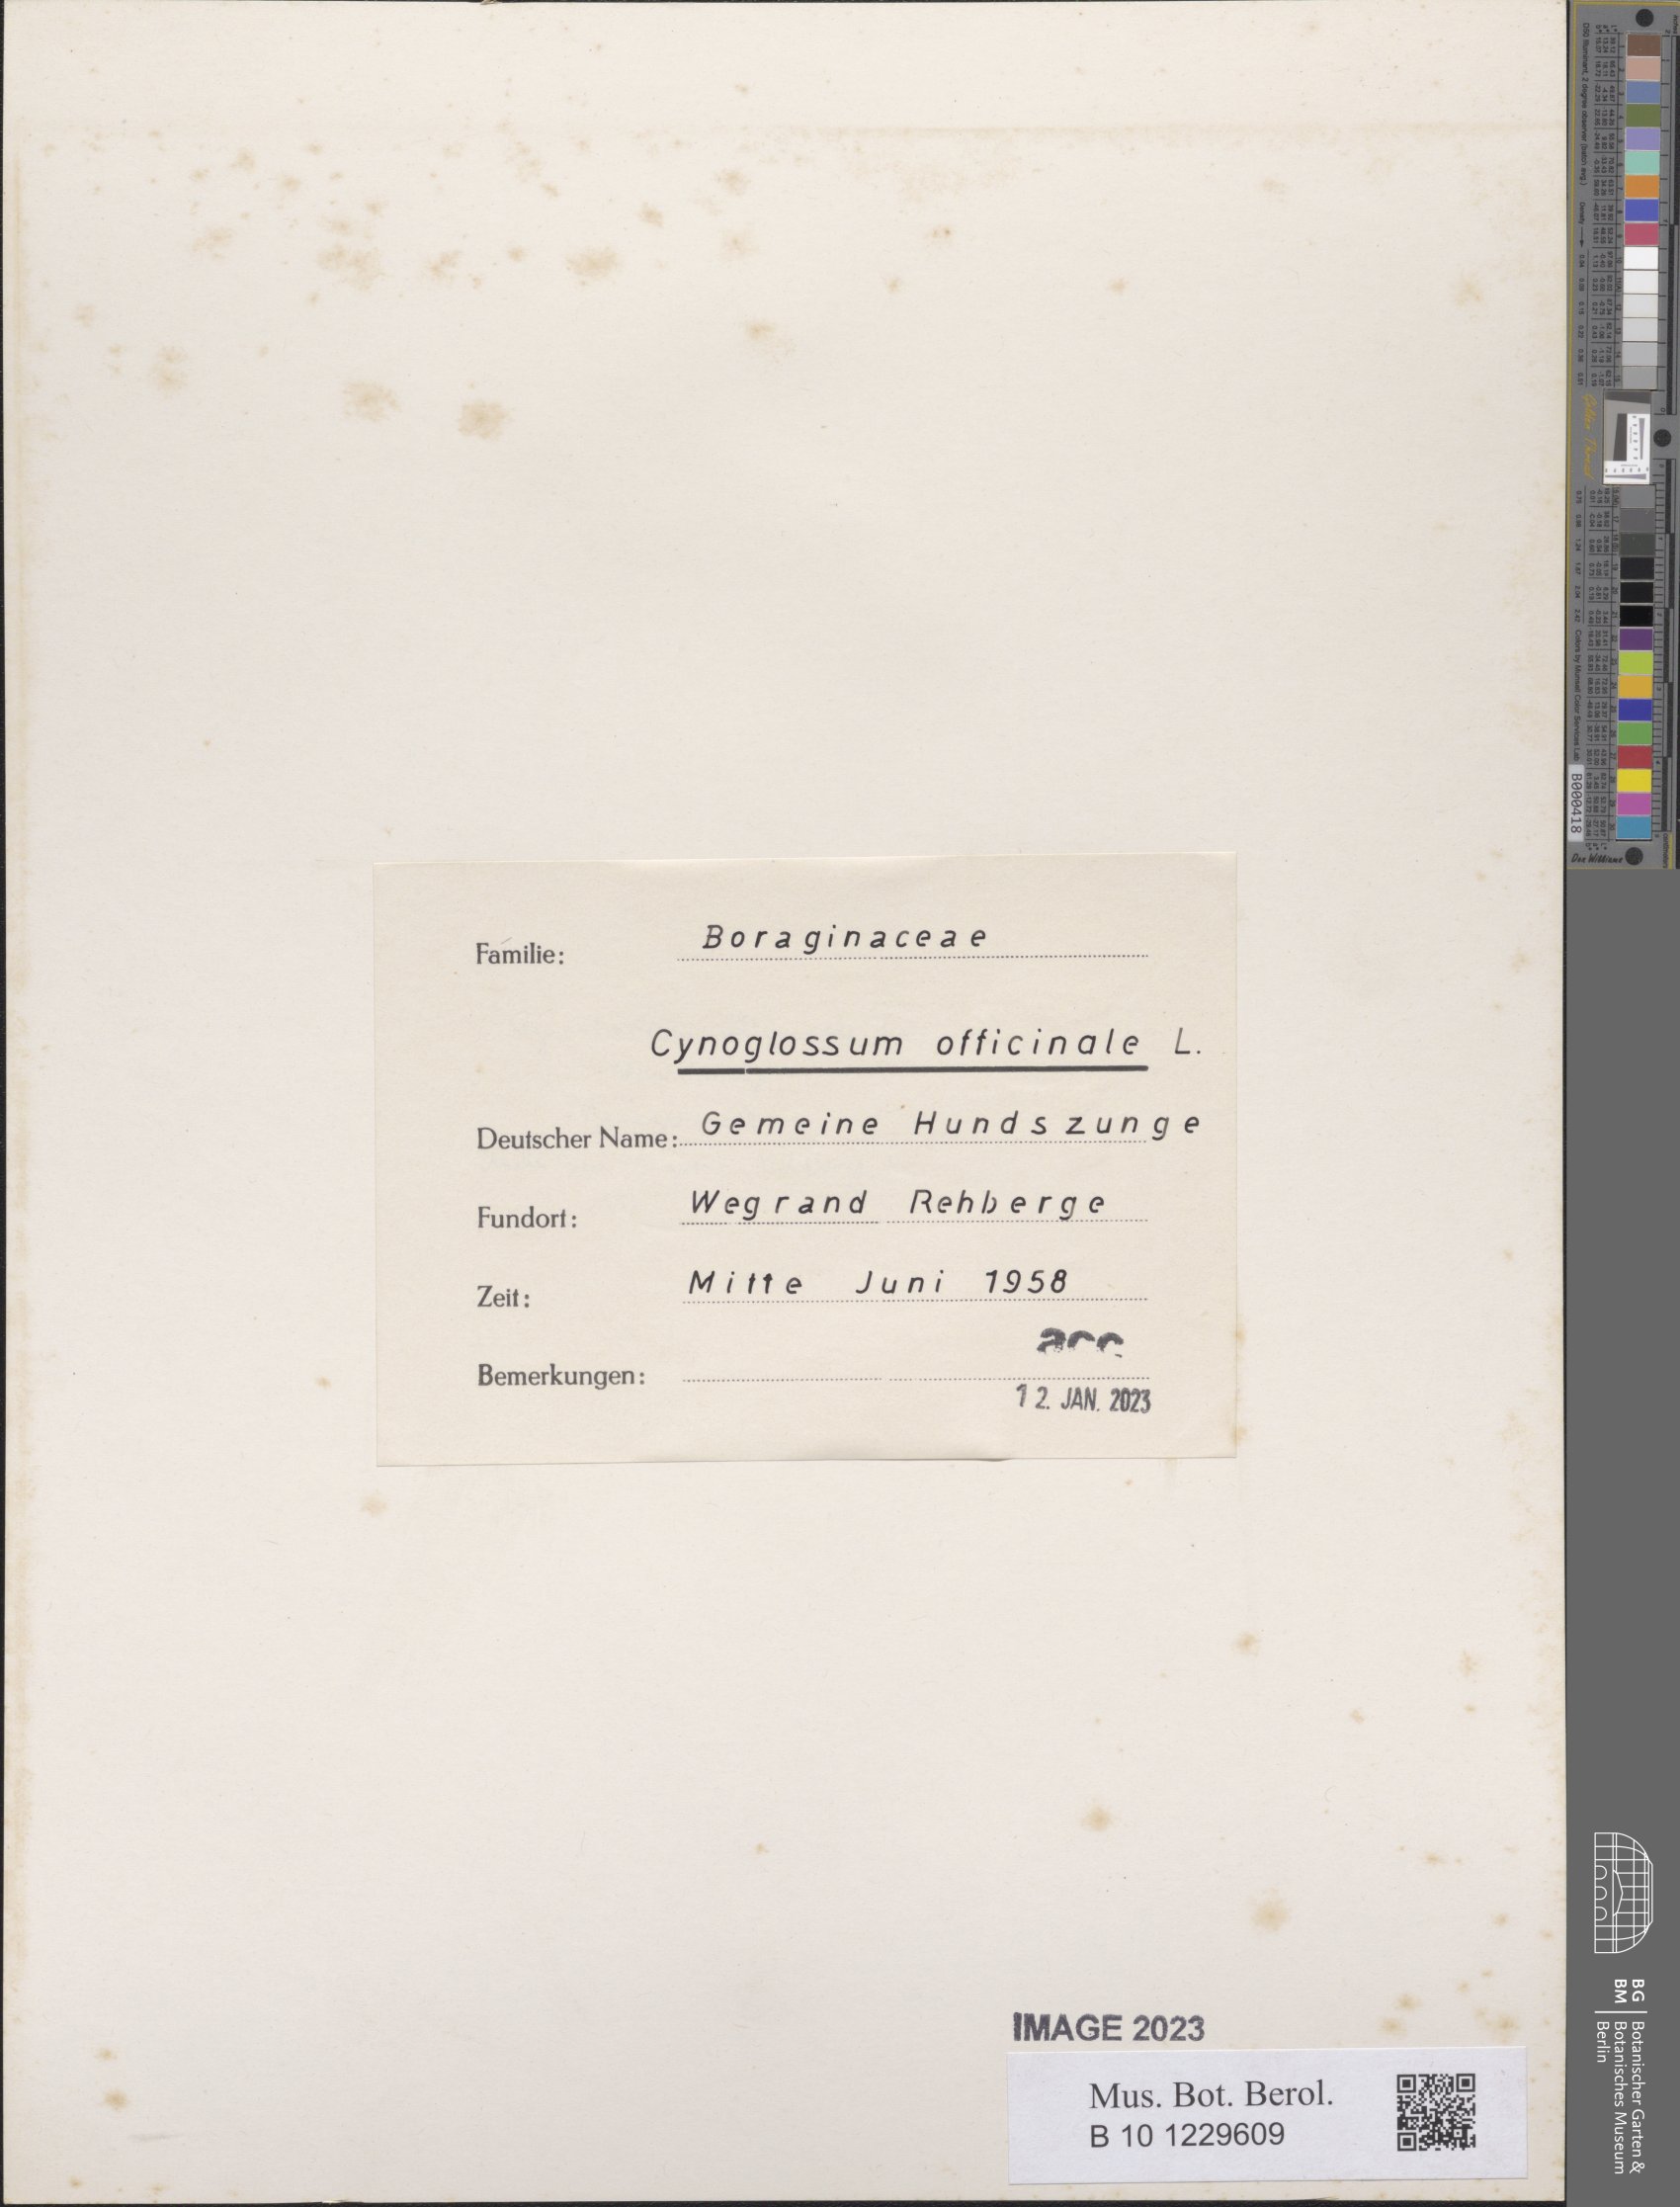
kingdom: Plantae
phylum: Tracheophyta
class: Magnoliopsida
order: Boraginales
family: Boraginaceae
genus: Cynoglossum
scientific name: Cynoglossum officinale
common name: Hound's-tongue
